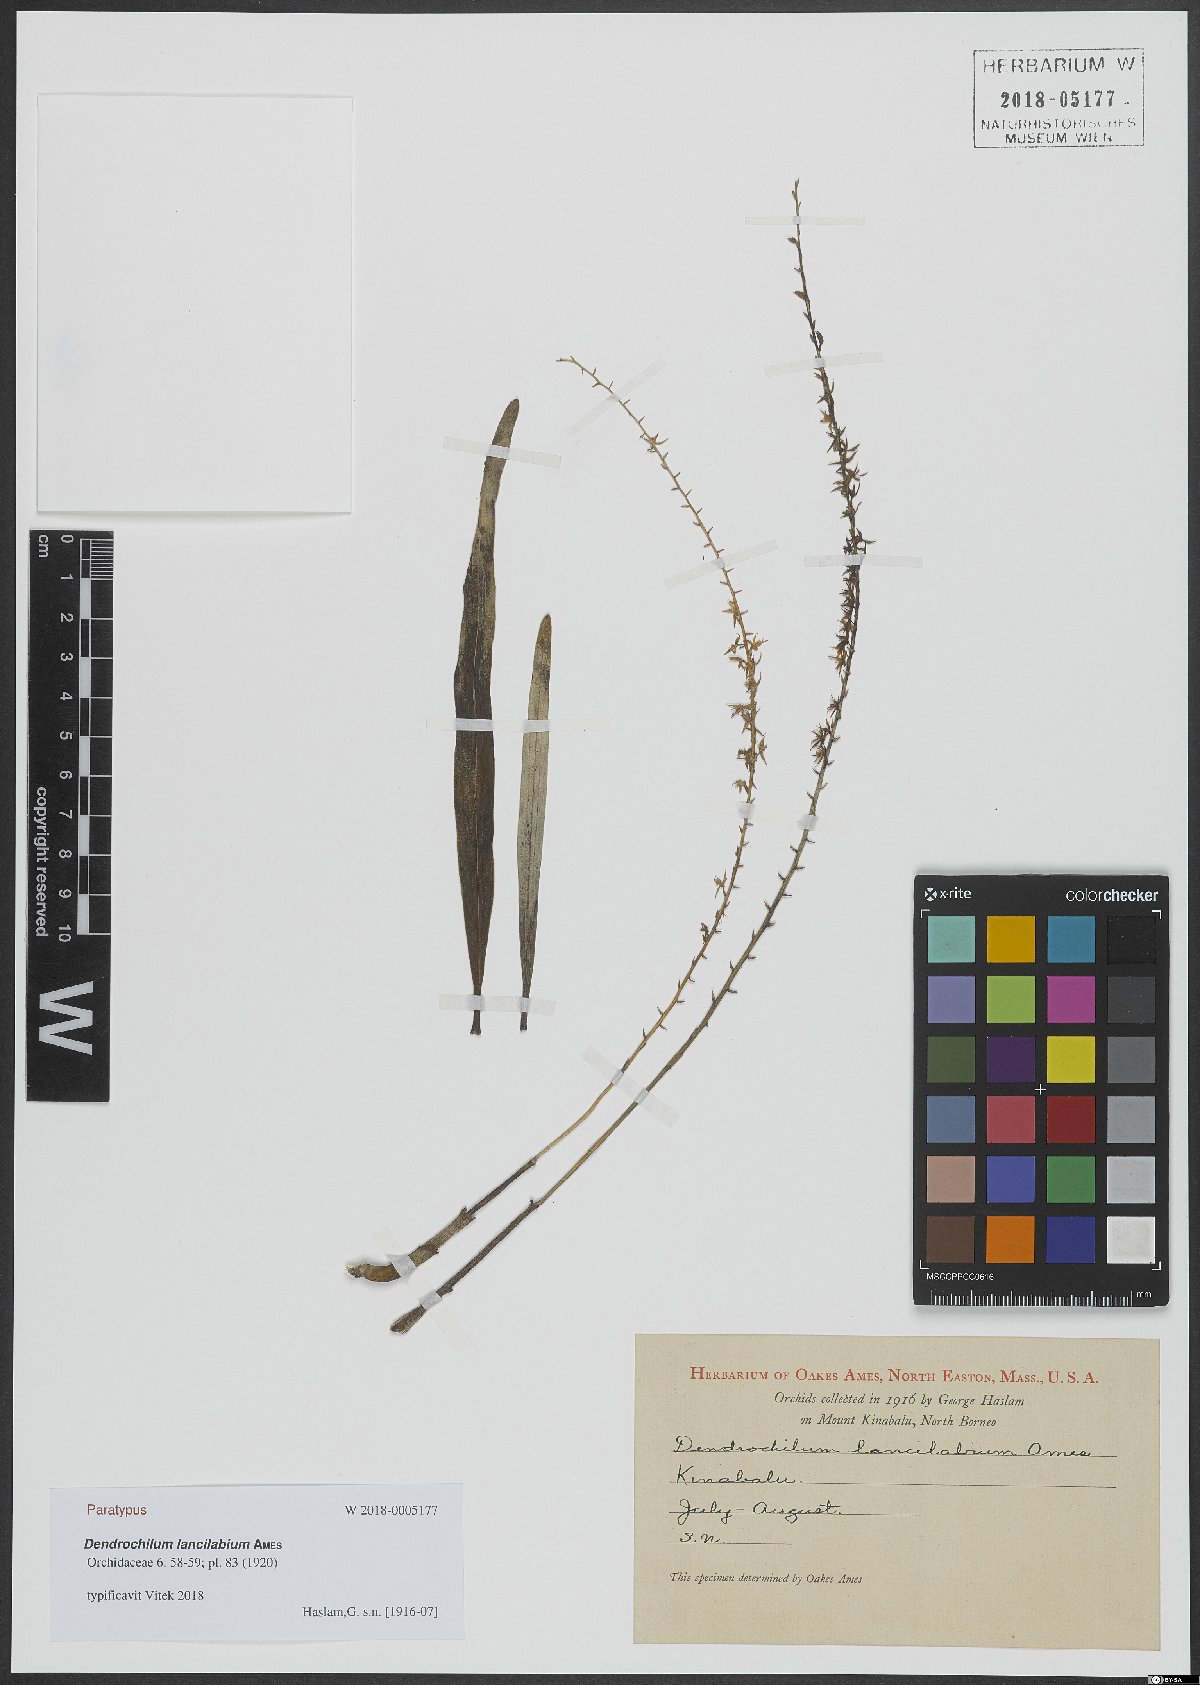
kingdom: Plantae
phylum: Tracheophyta
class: Liliopsida
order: Asparagales
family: Orchidaceae
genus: Coelogyne
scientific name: Coelogyne cuspilabia
